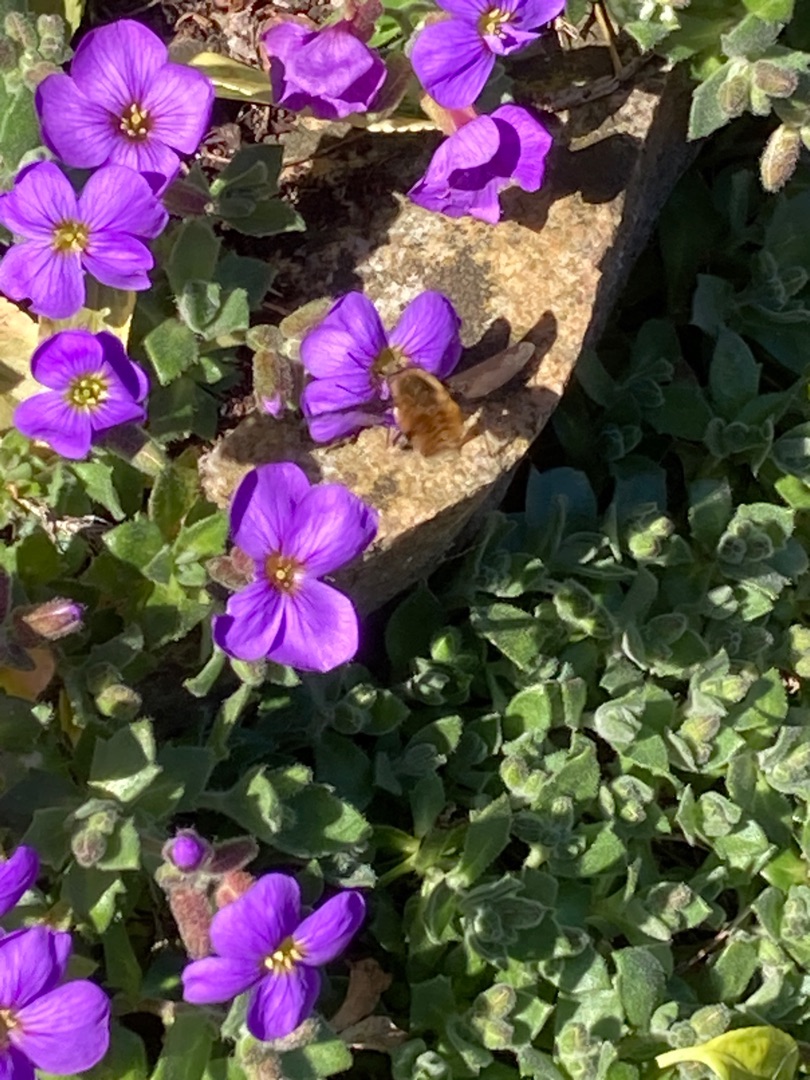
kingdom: Animalia
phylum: Arthropoda
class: Insecta
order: Diptera
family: Bombyliidae
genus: Bombylius
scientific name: Bombylius major
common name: Stor humleflue
